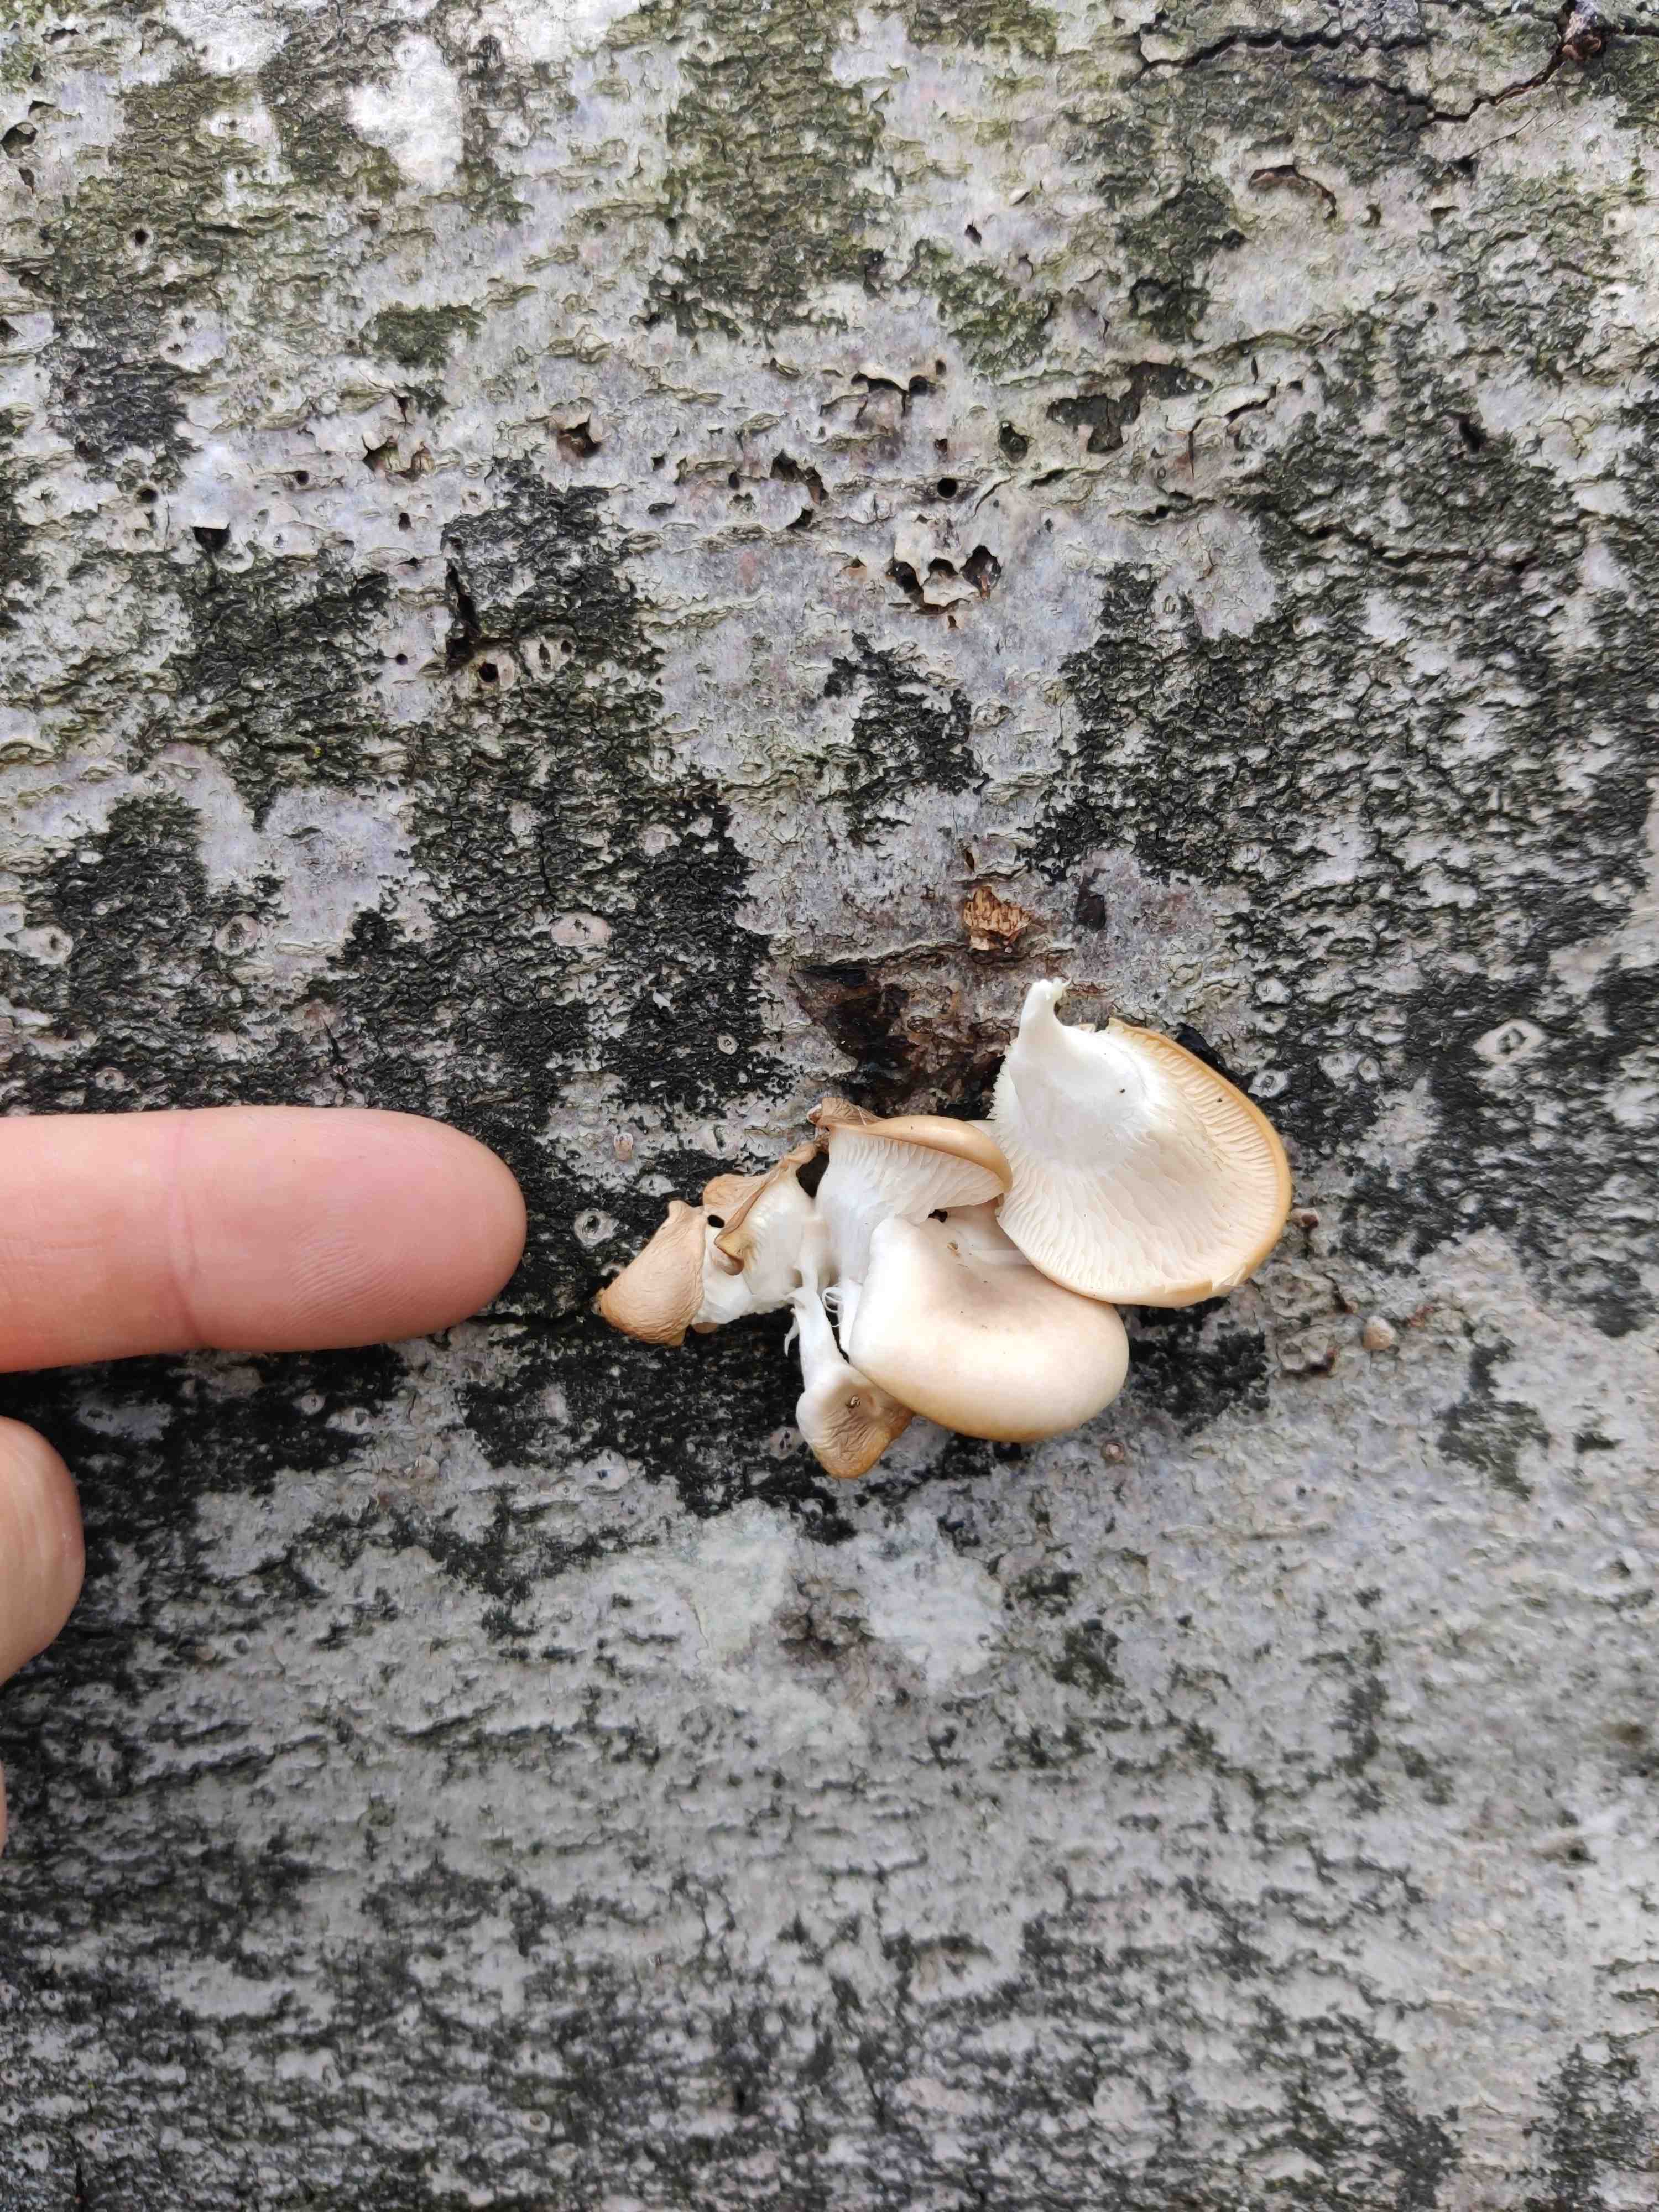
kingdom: Fungi
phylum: Basidiomycota
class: Agaricomycetes
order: Agaricales
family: Pleurotaceae
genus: Pleurotus
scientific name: Pleurotus pulmonarius
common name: sommer-østershat
